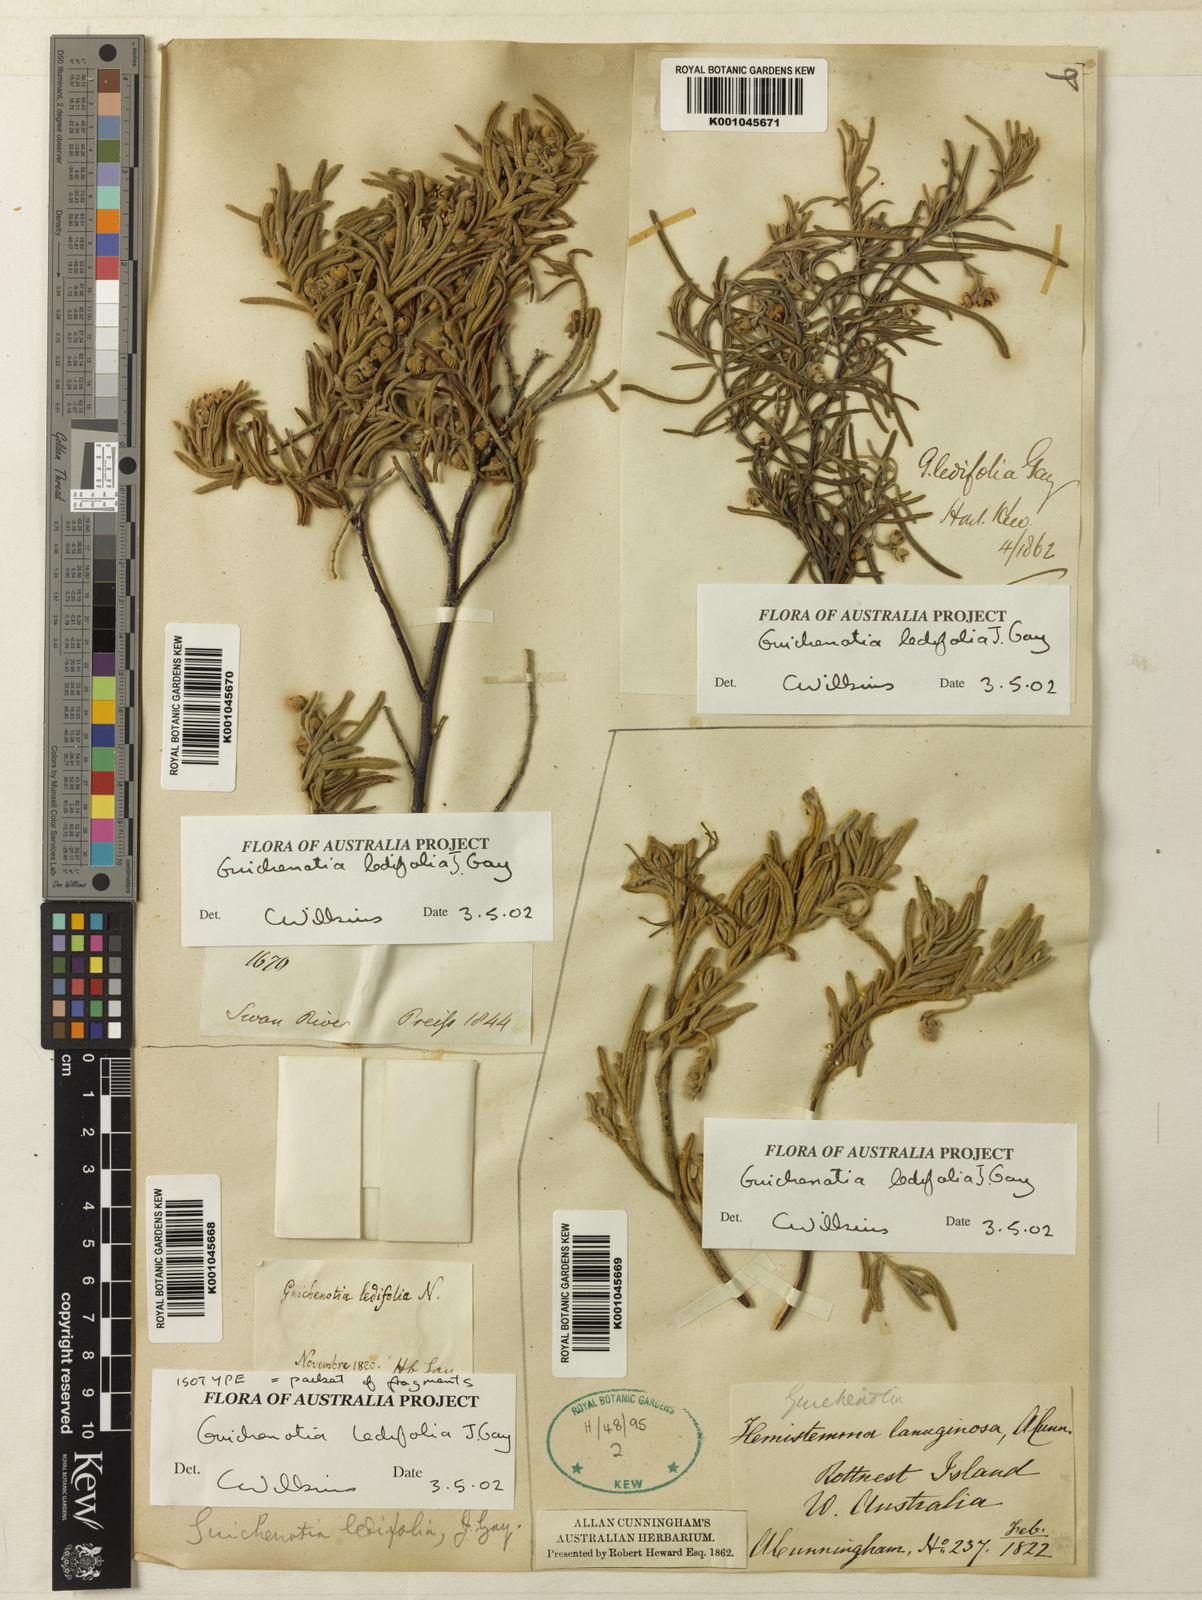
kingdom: Plantae
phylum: Tracheophyta
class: Magnoliopsida
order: Malvales
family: Malvaceae
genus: Guichenotia
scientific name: Guichenotia ledifolia
